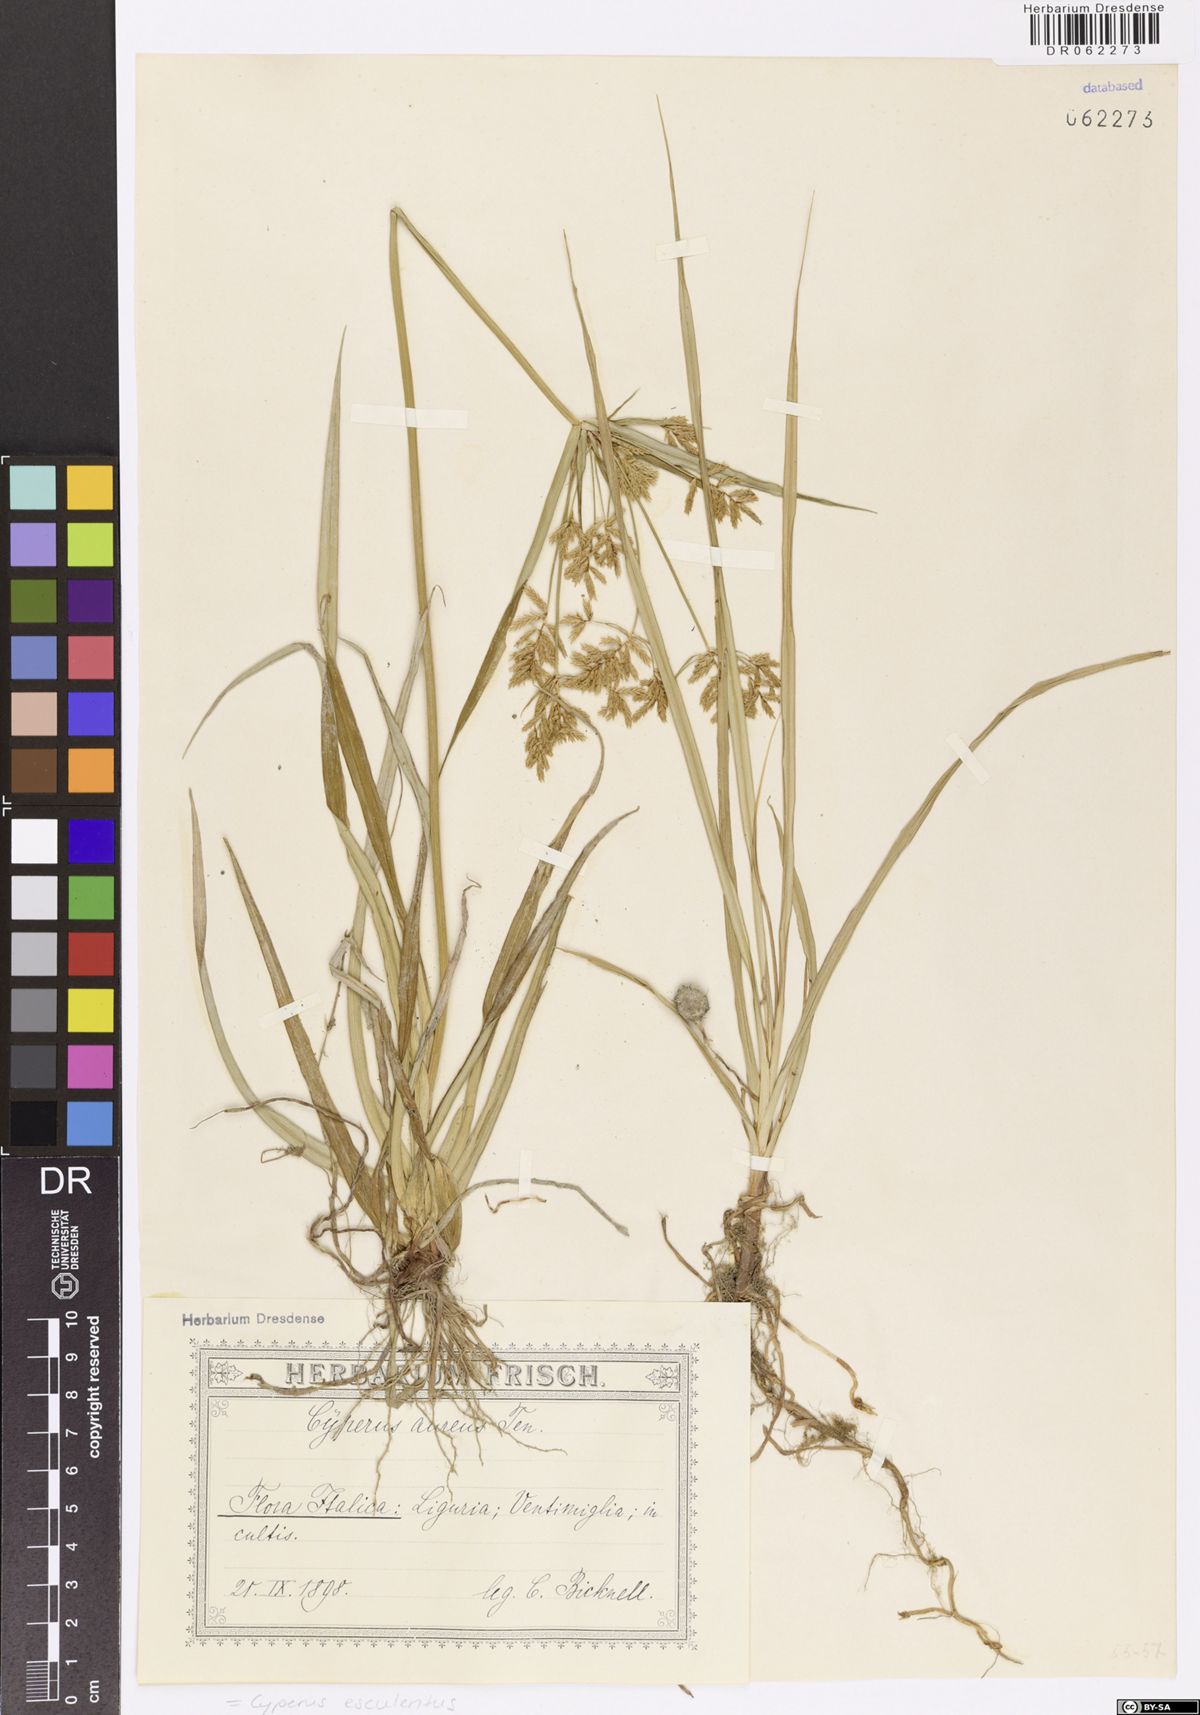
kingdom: Plantae
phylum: Tracheophyta
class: Liliopsida
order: Poales
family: Cyperaceae
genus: Cyperus
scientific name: Cyperus esculentus
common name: Yellow nutsedge
